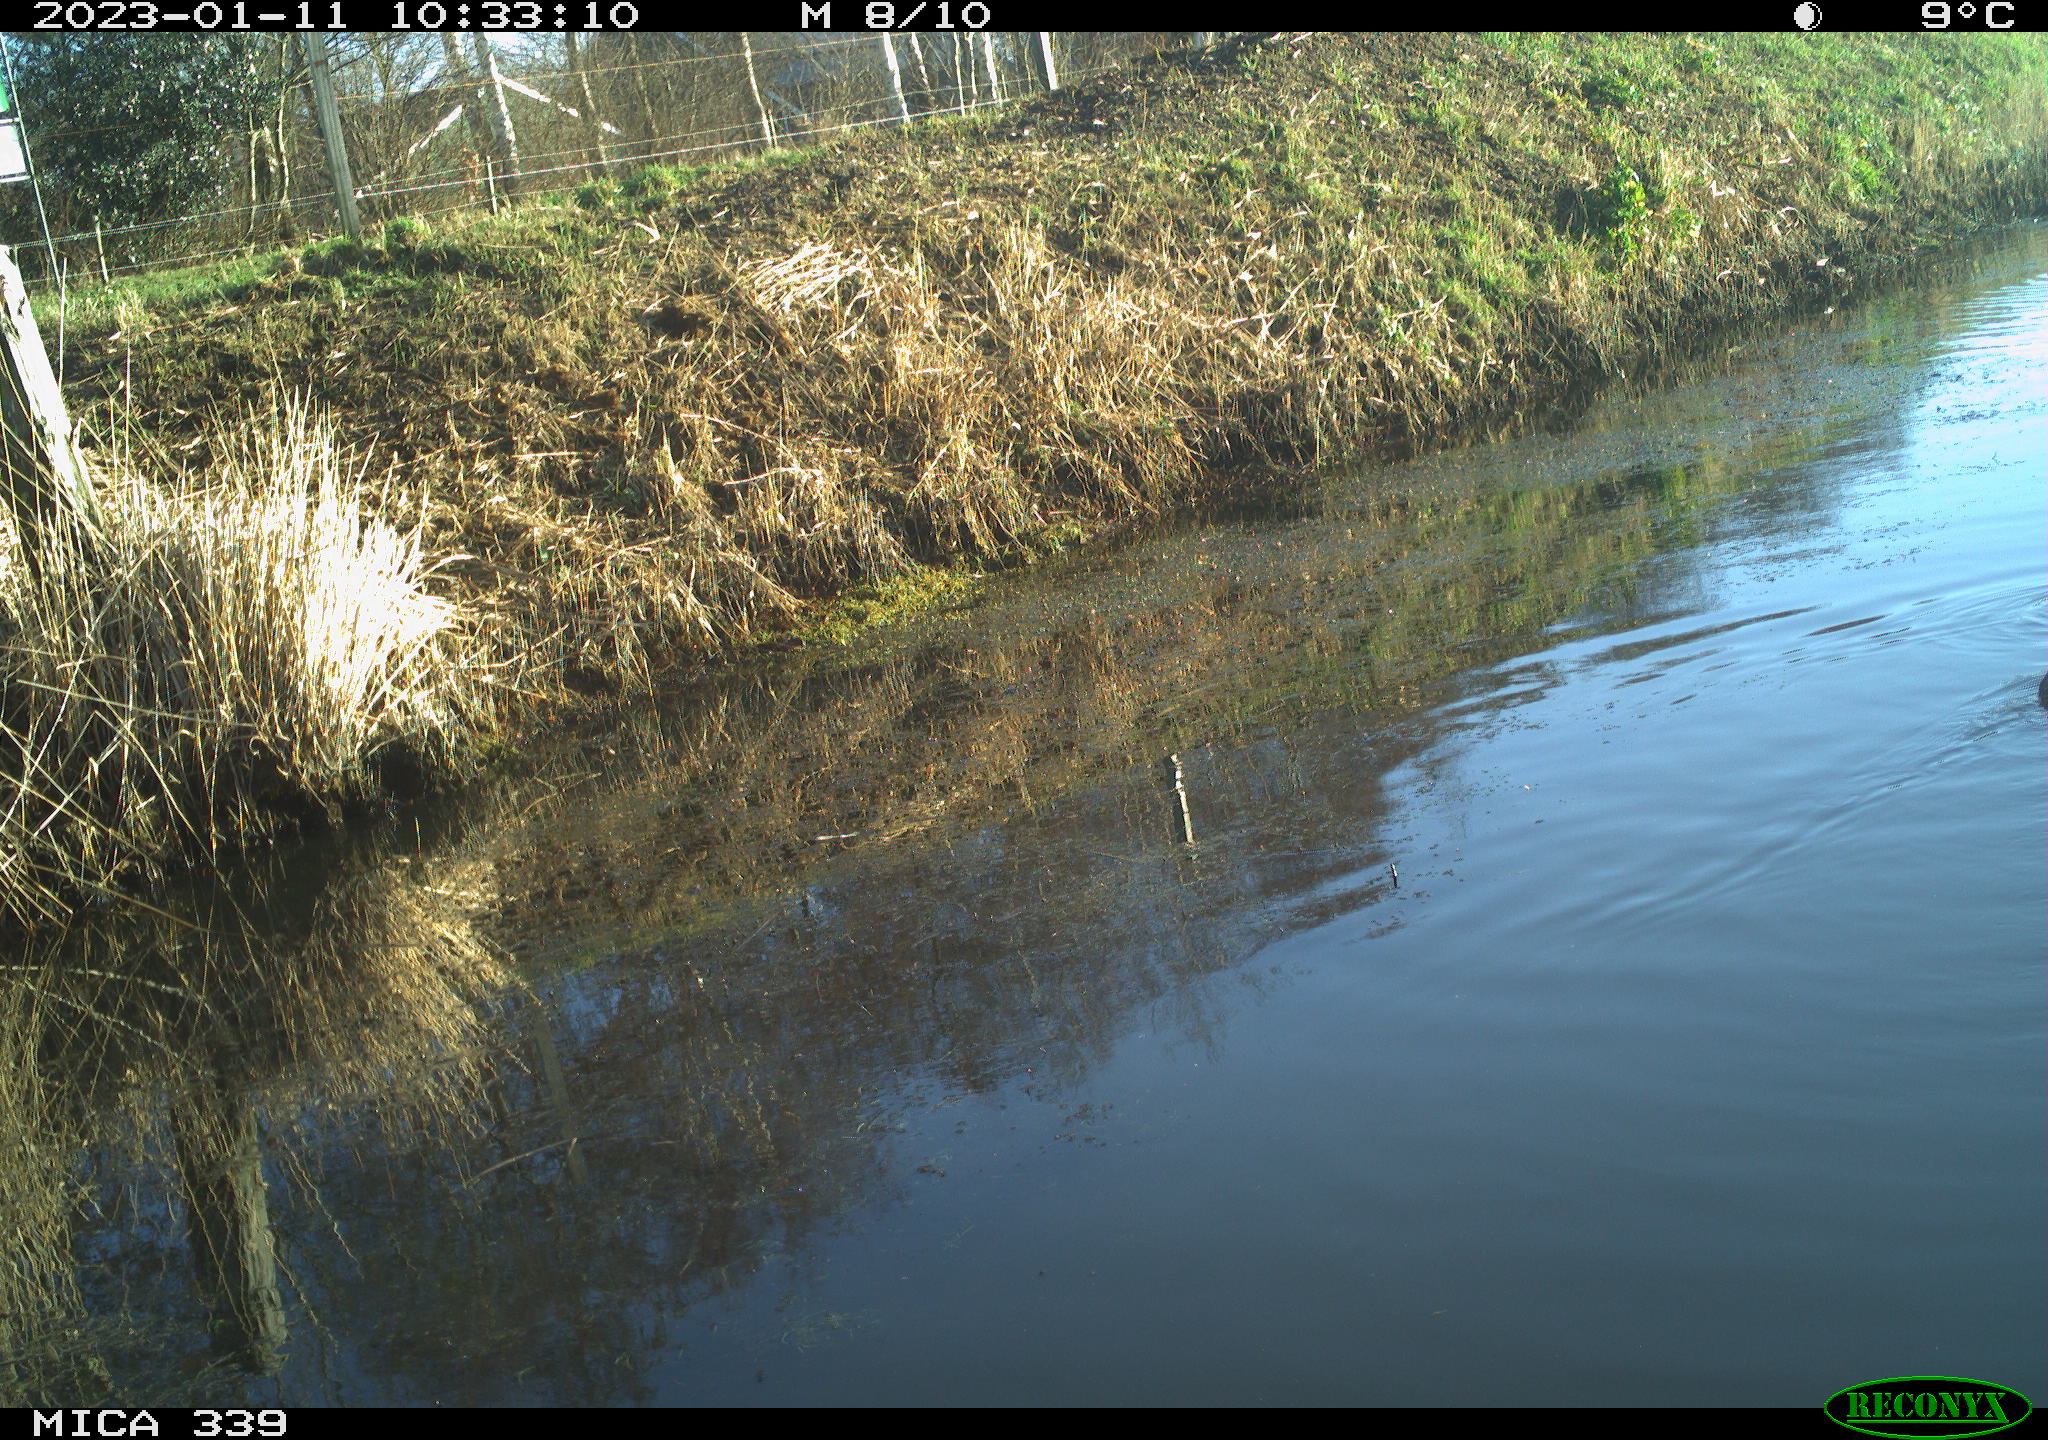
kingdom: Animalia
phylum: Chordata
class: Aves
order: Anseriformes
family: Anatidae
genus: Anas
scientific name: Anas
